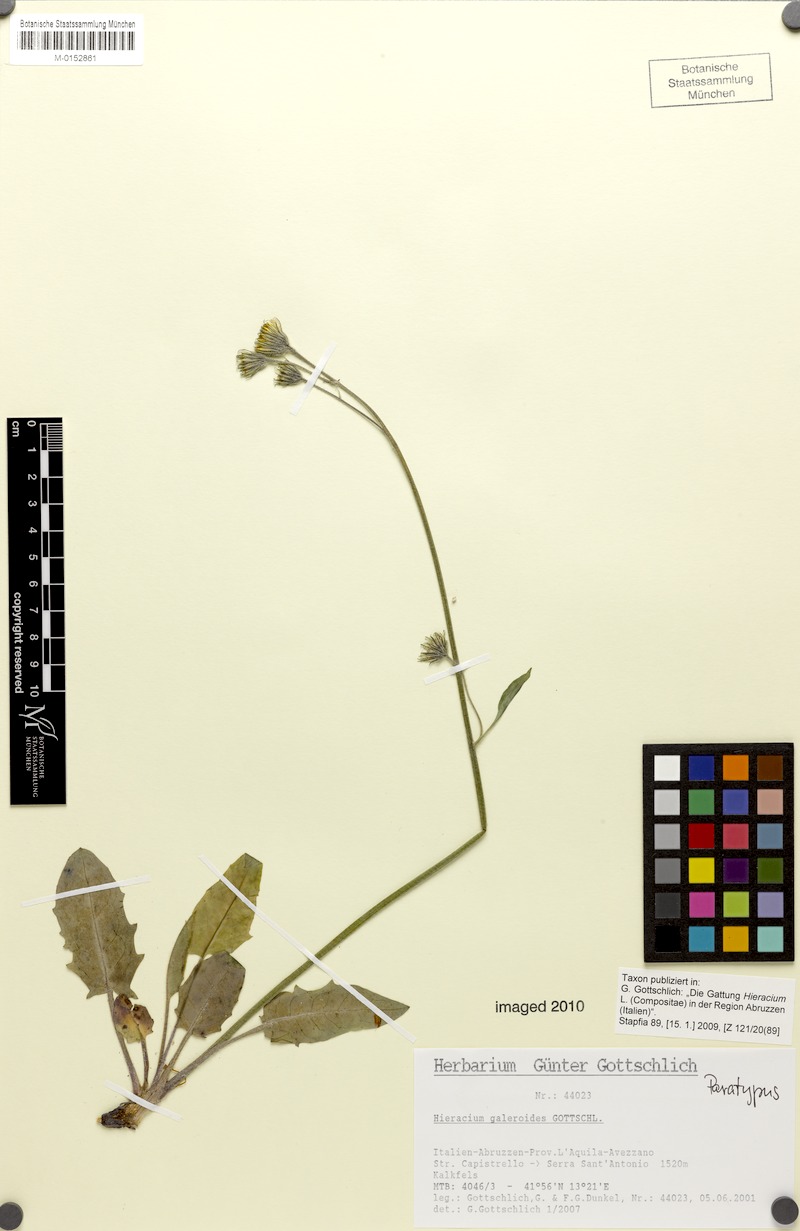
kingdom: Plantae
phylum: Tracheophyta
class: Magnoliopsida
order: Asterales
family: Asteraceae
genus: Hieracium
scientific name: Hieracium galeroides
